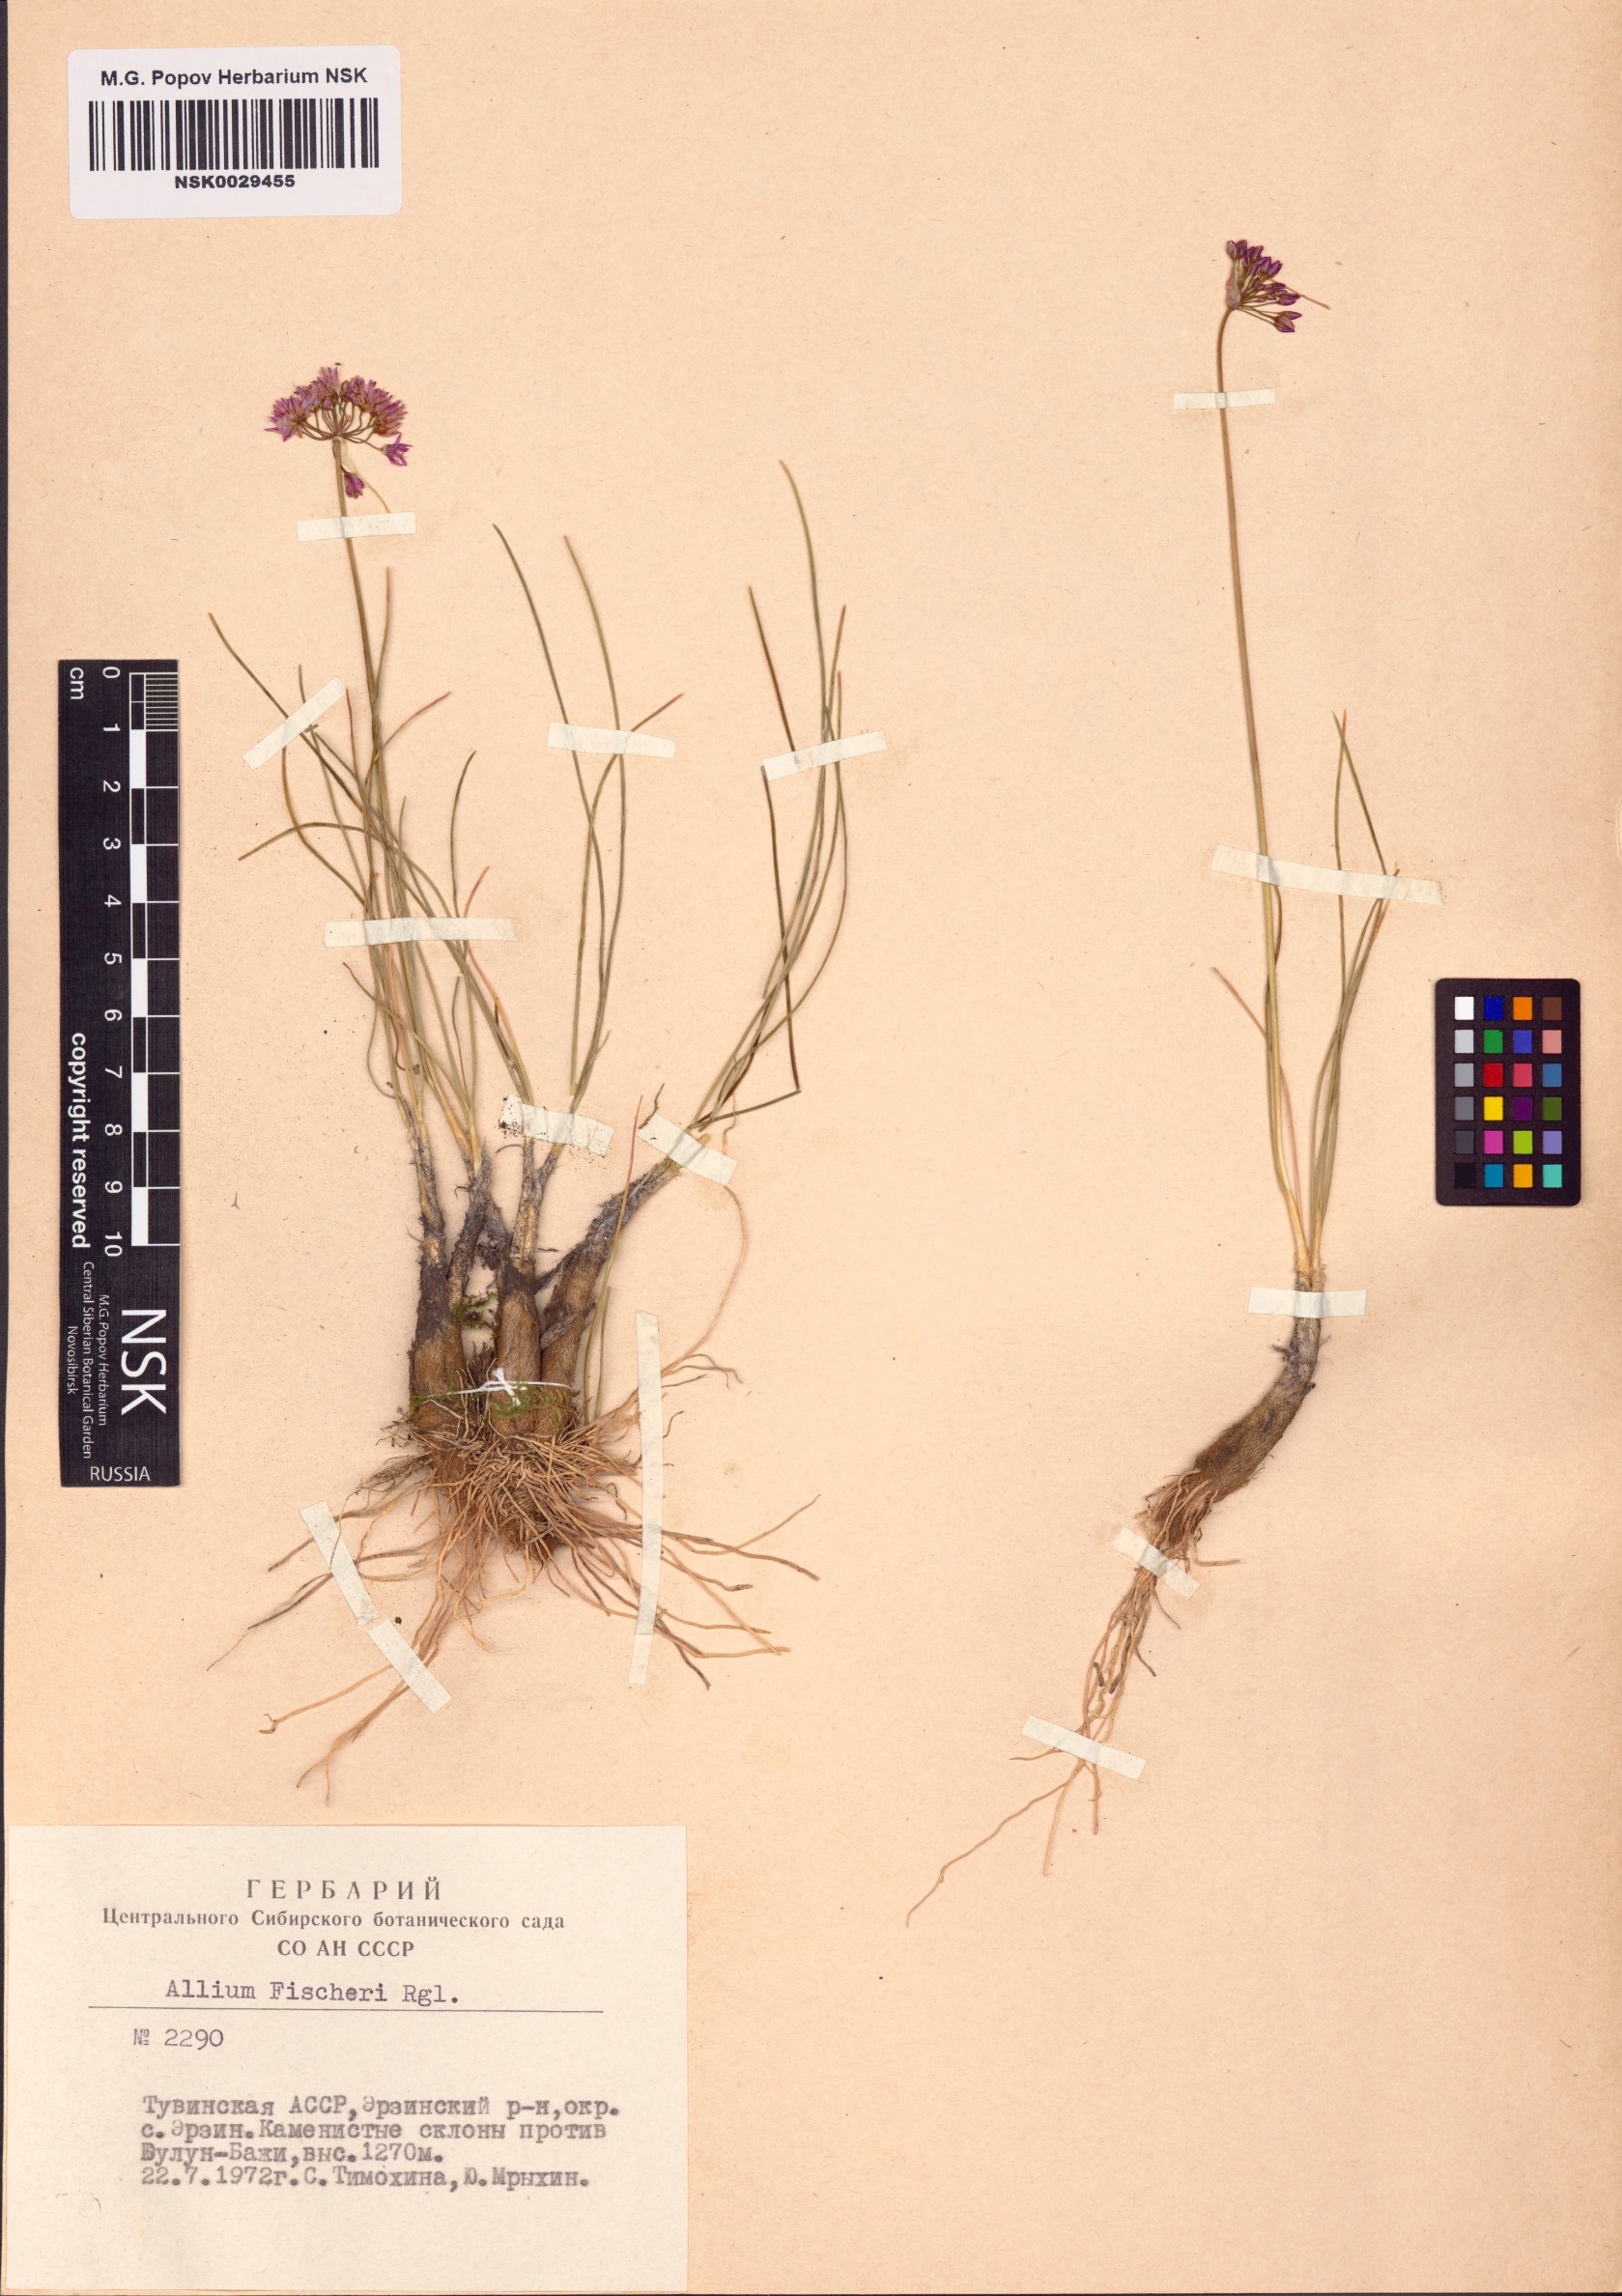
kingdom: Plantae
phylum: Tracheophyta
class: Liliopsida
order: Asparagales
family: Amaryllidaceae
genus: Allium
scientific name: Allium eduardi
